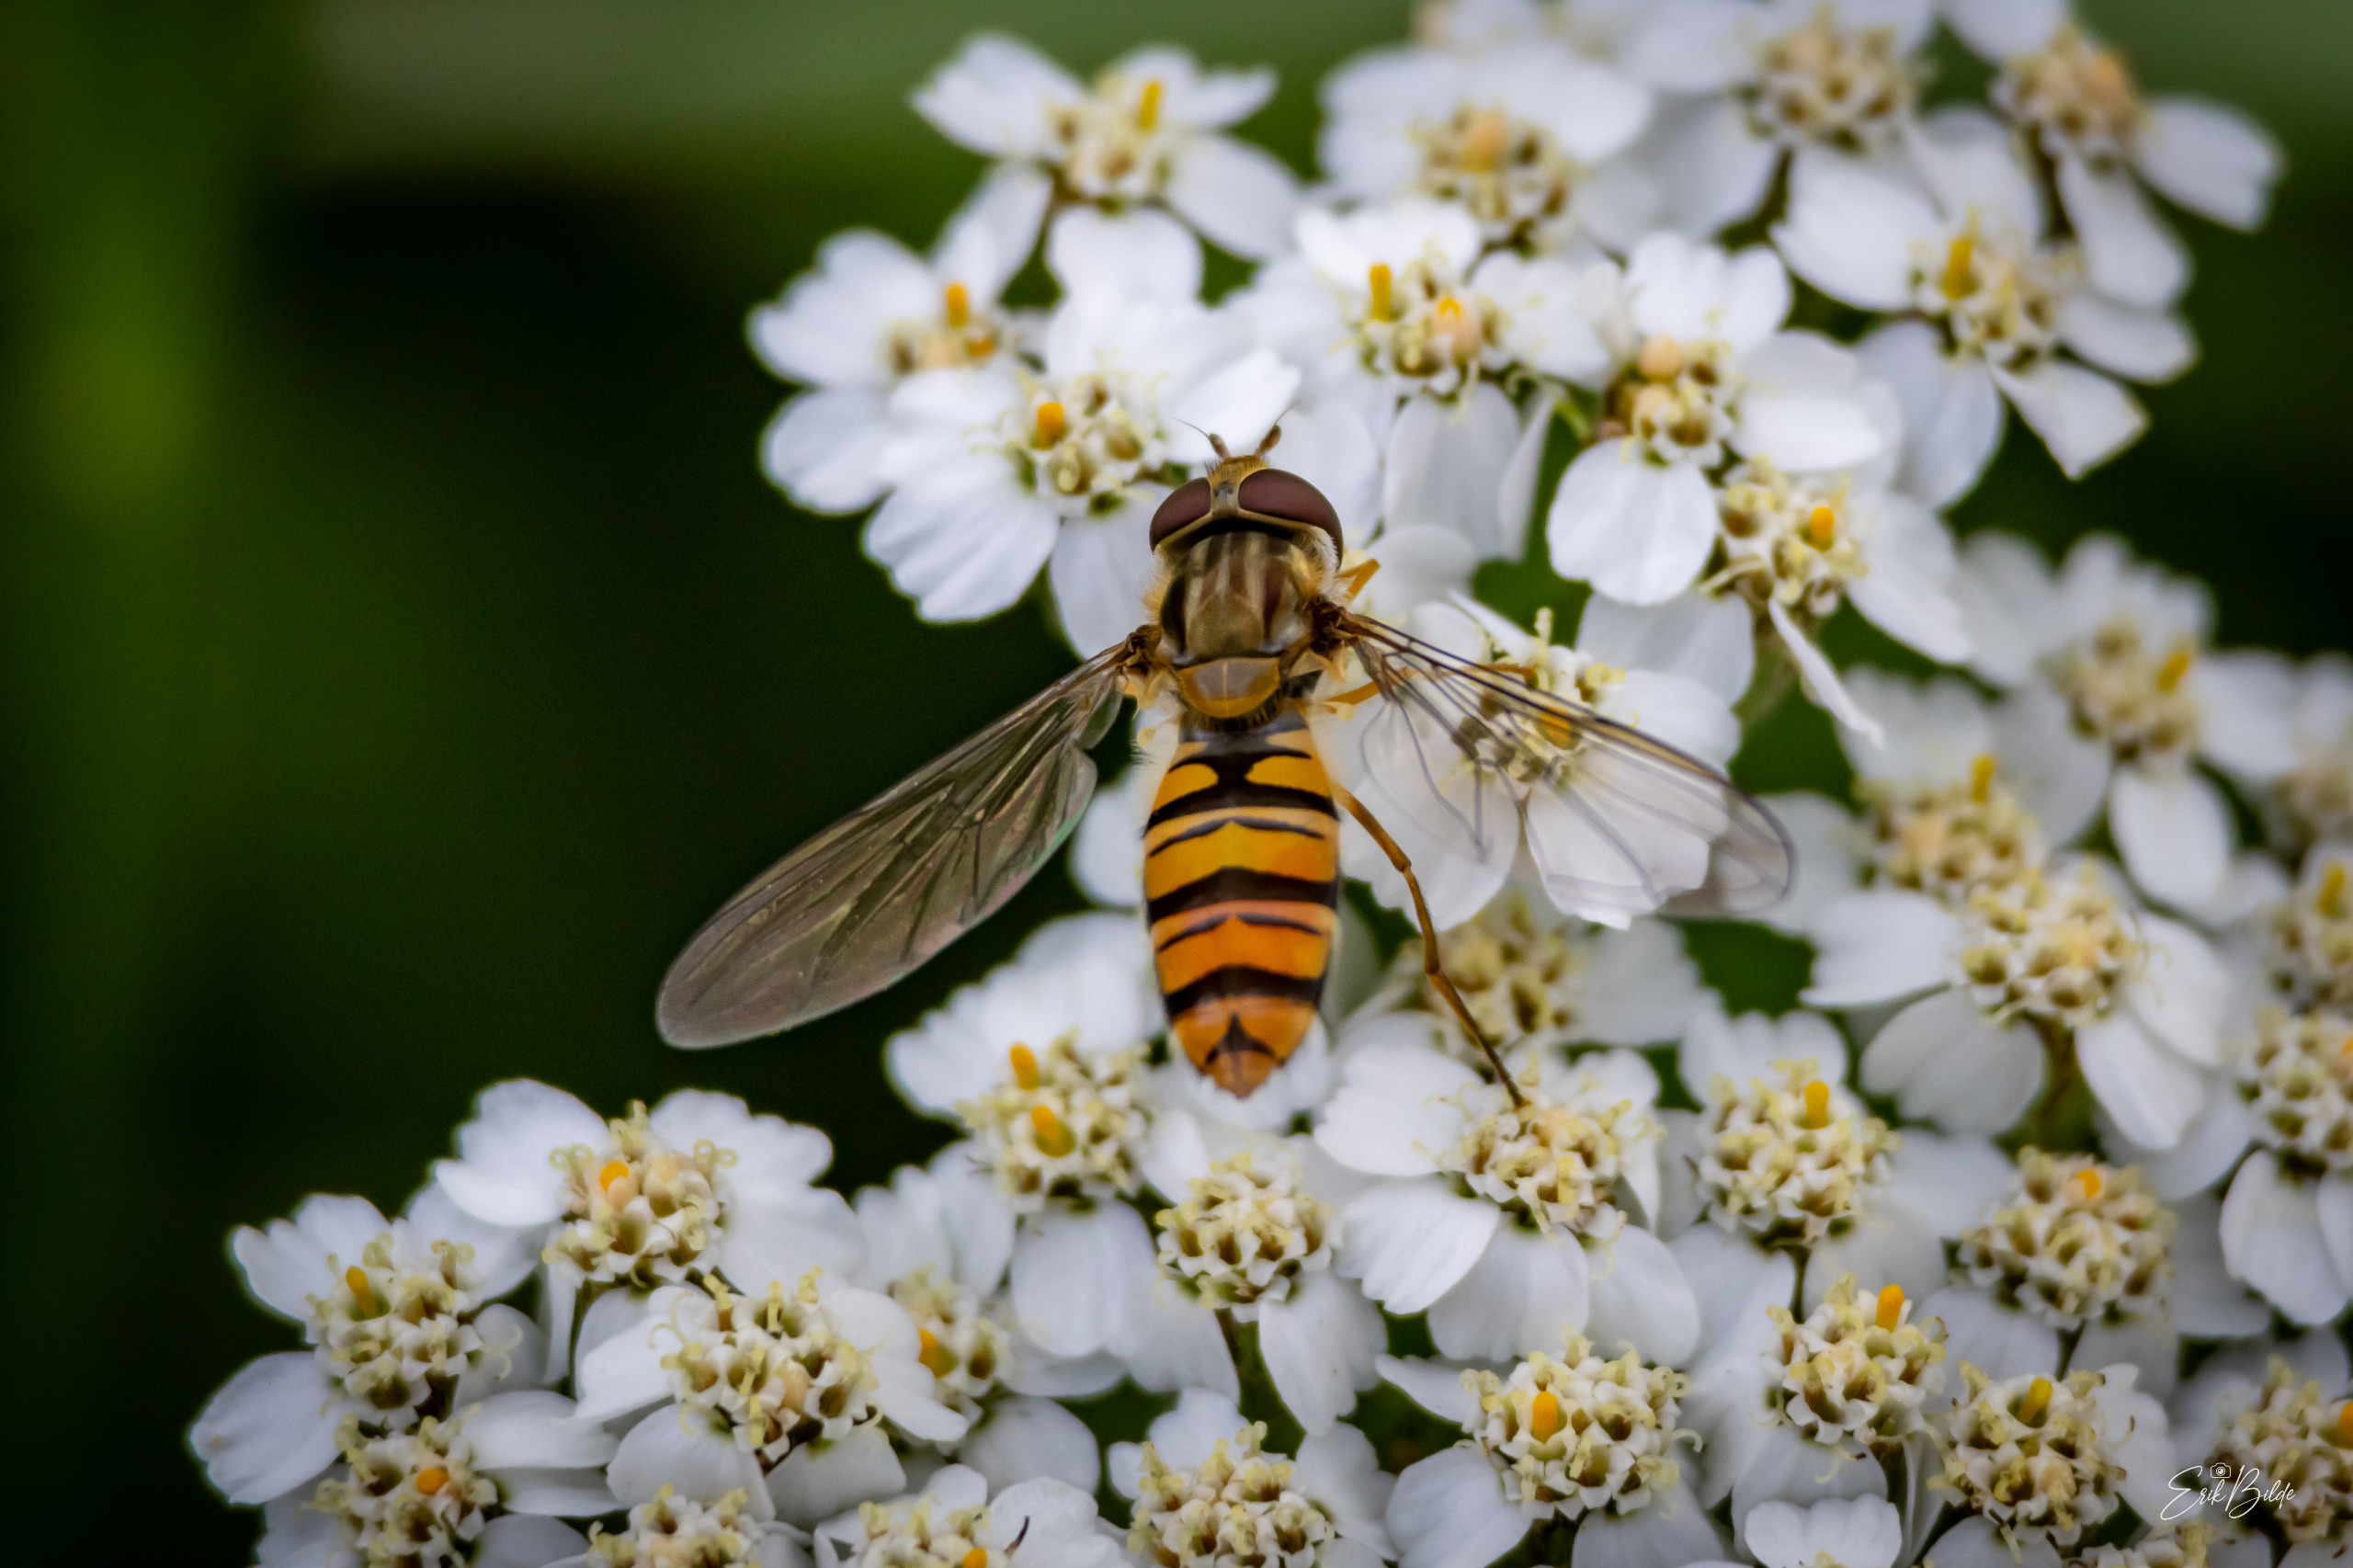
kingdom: Animalia
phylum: Arthropoda
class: Insecta
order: Diptera
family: Syrphidae
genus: Episyrphus
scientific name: Episyrphus balteatus
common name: Dobbeltbåndet svirreflue
